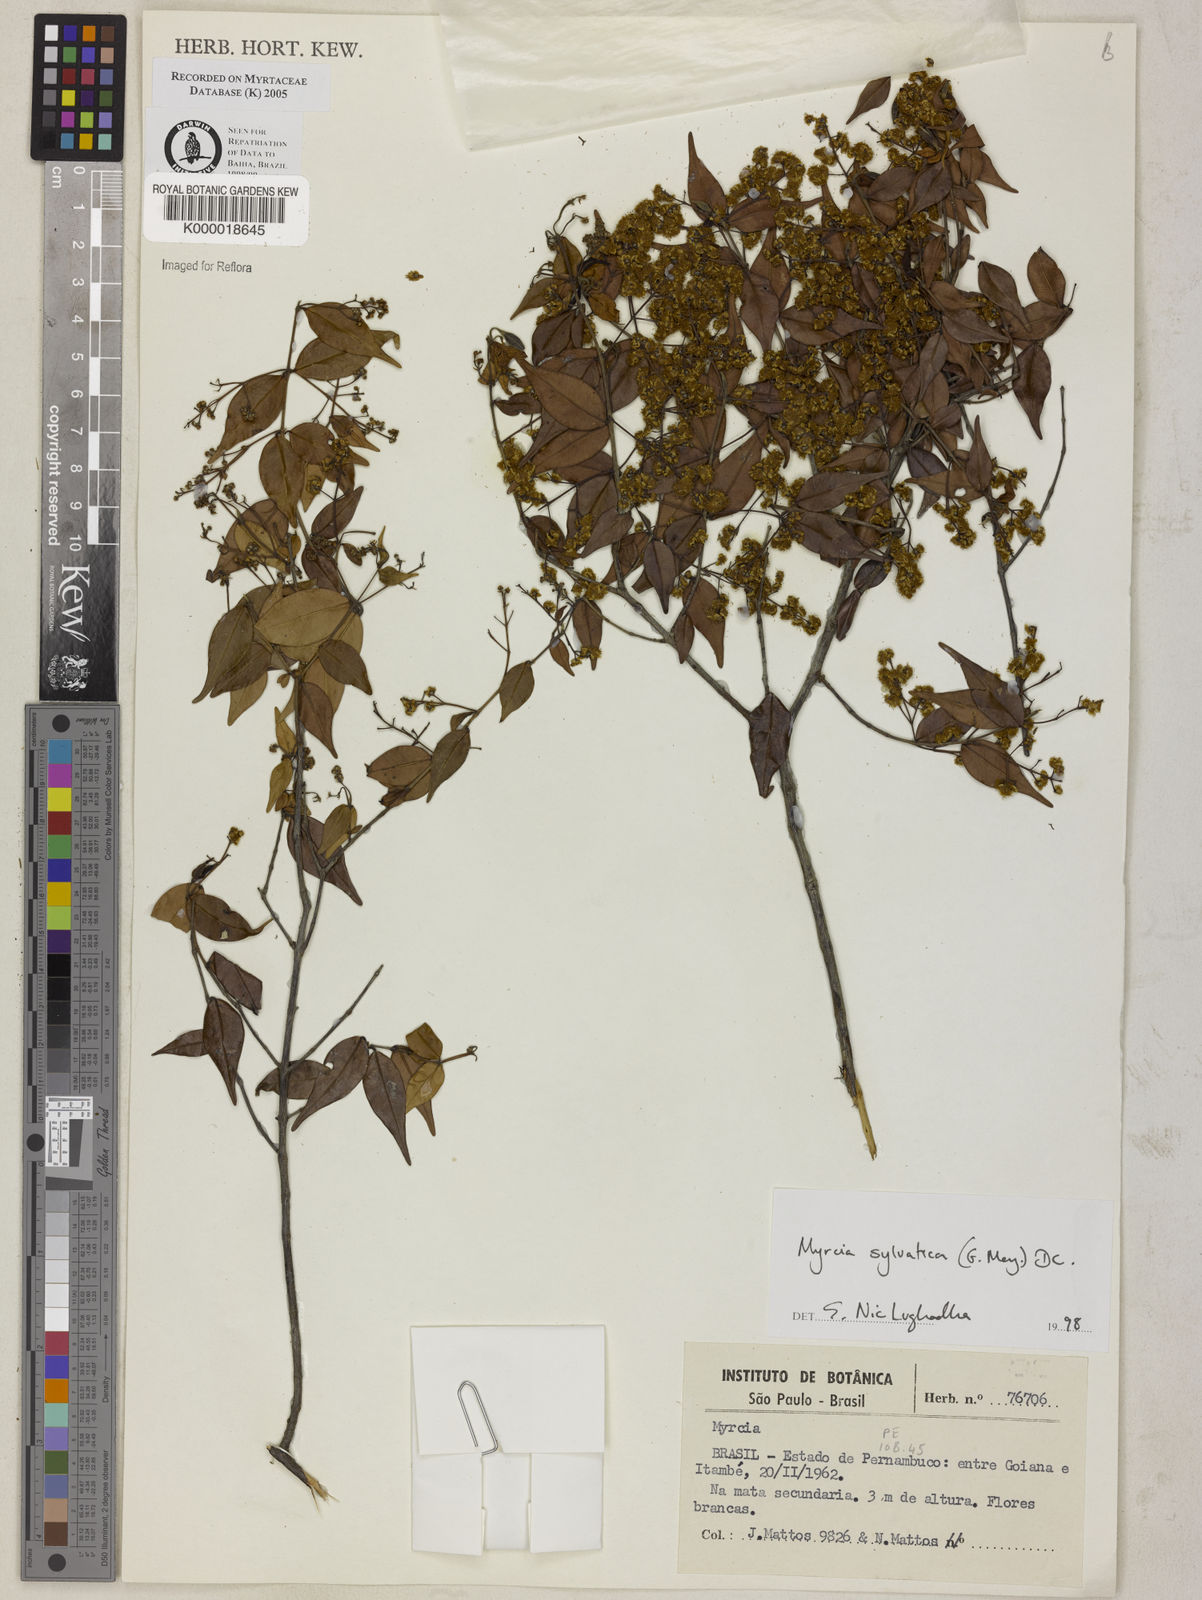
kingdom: Plantae
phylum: Tracheophyta
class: Magnoliopsida
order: Myrtales
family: Myrtaceae
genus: Myrcia
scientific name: Myrcia sylvatica
